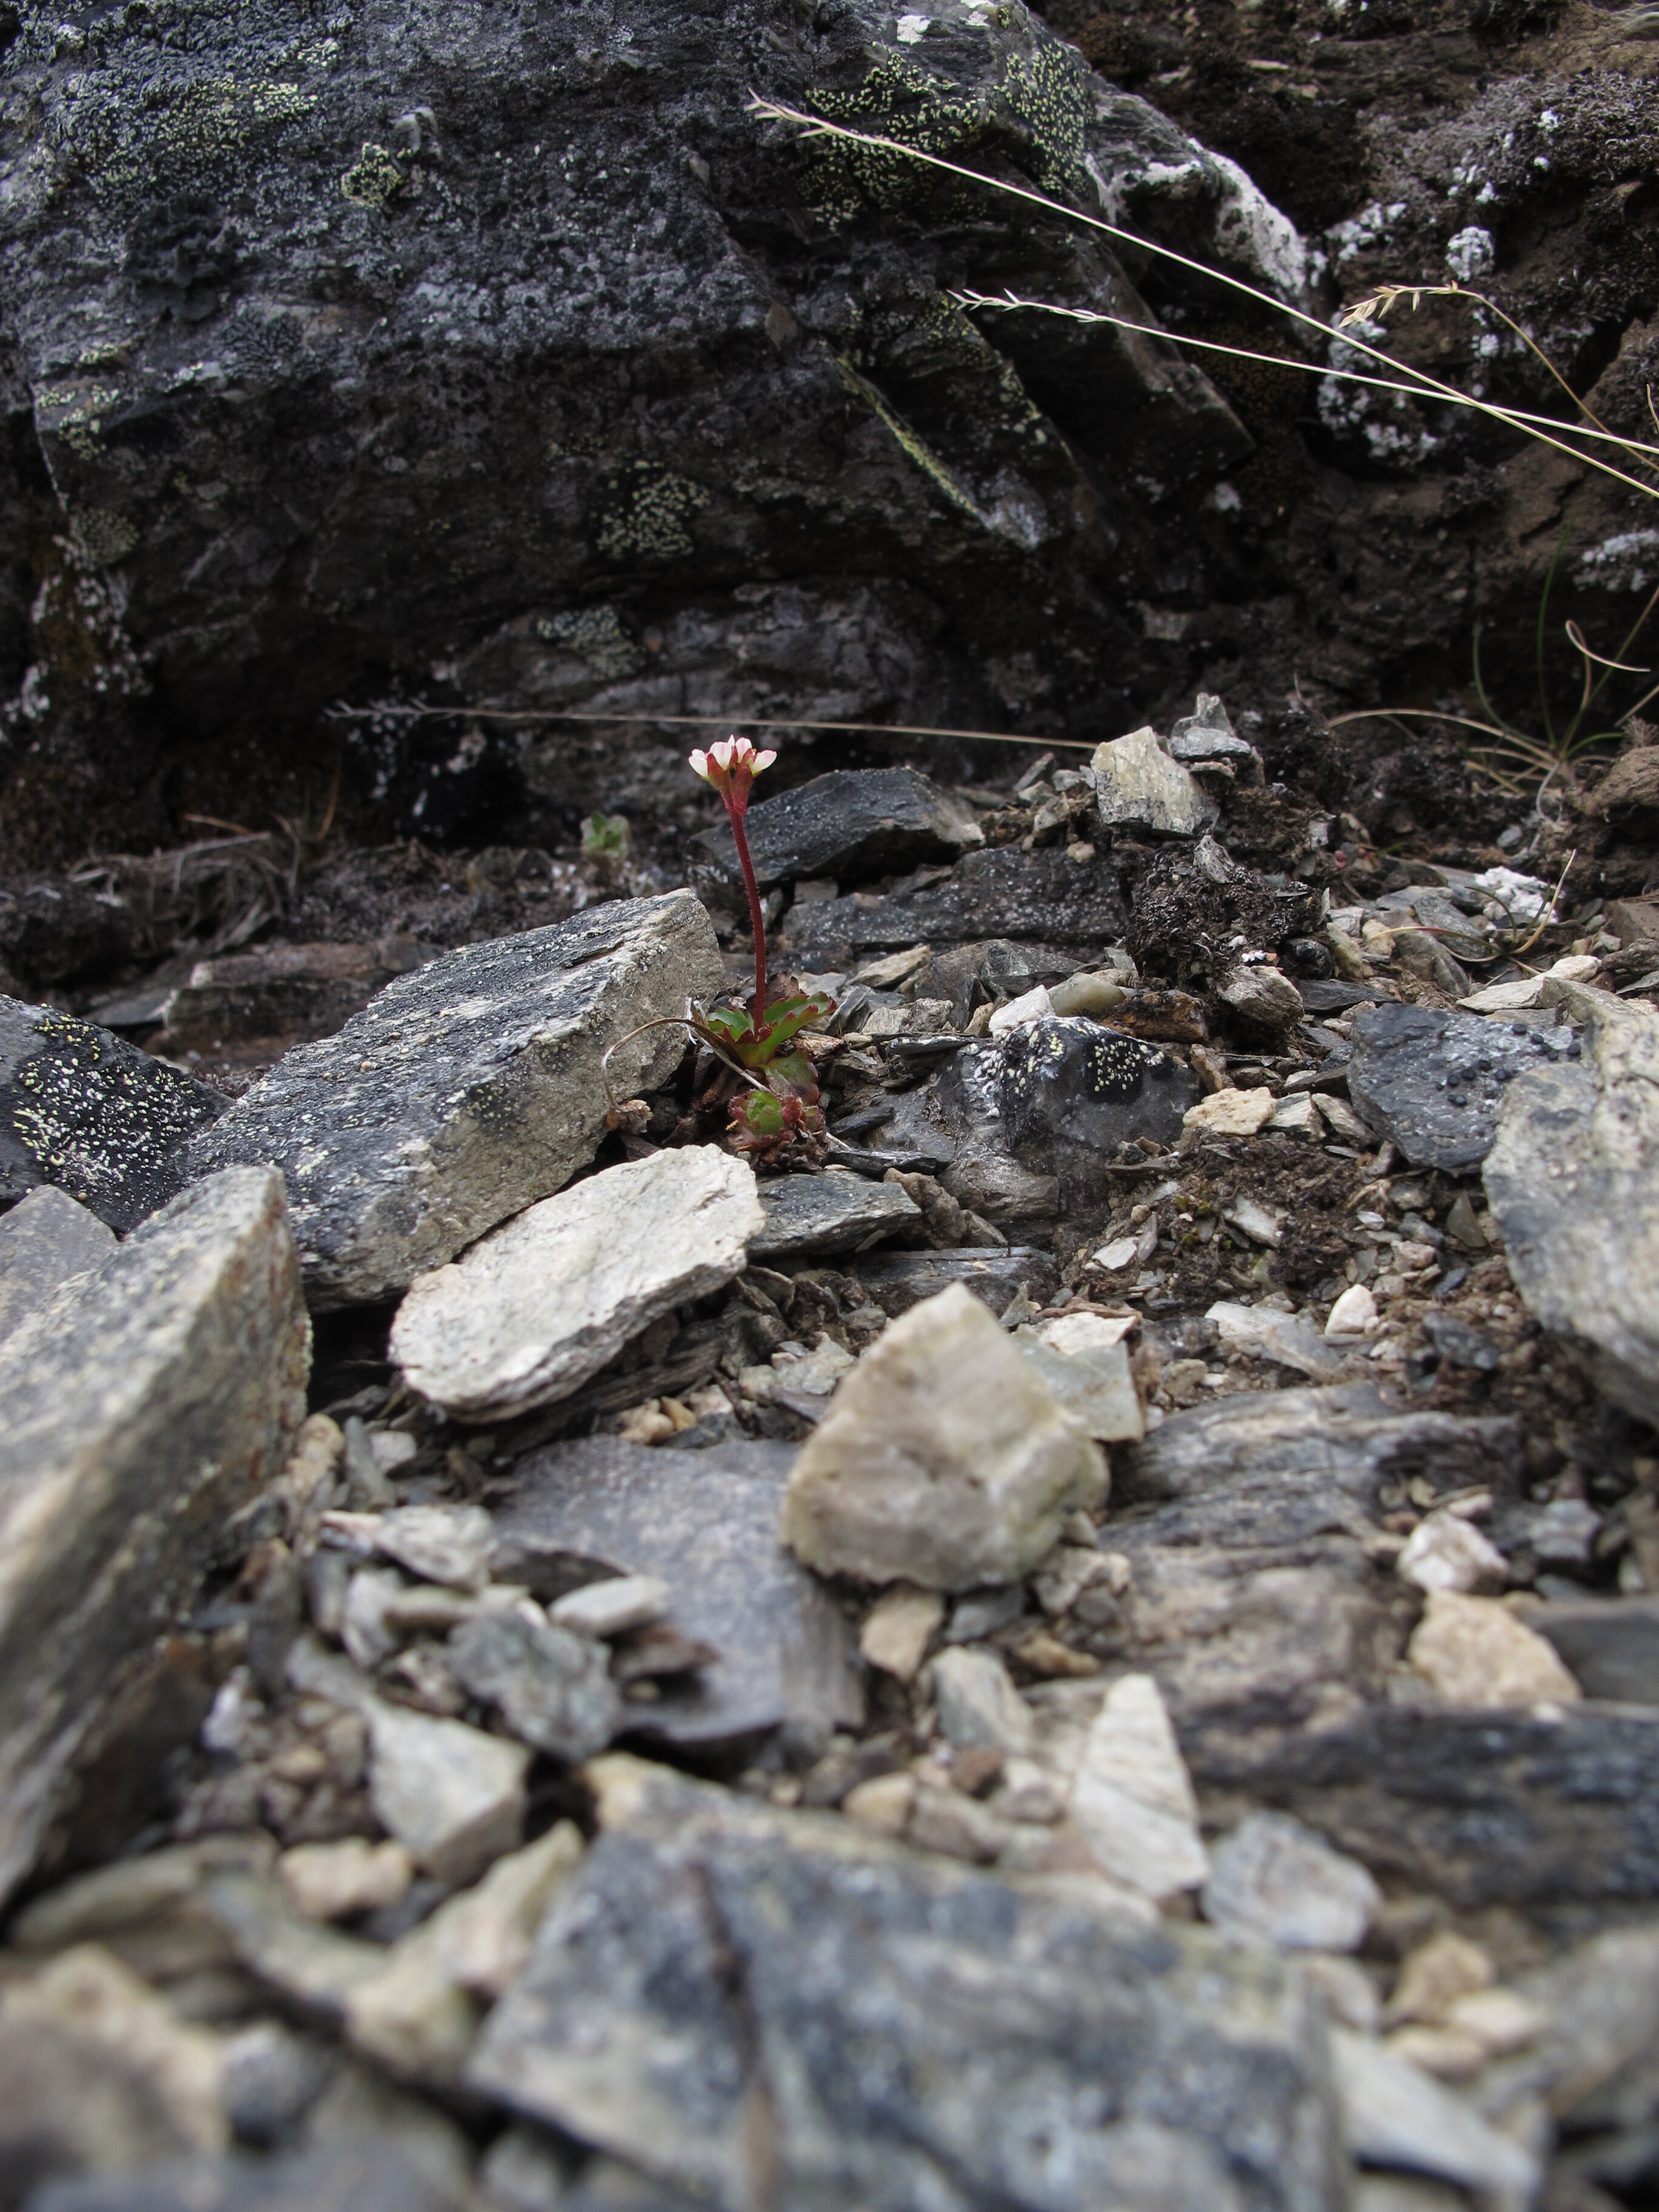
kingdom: Plantae
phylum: Tracheophyta
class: Magnoliopsida
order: Saxifragales
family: Saxifragaceae
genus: Micranthes
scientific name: Micranthes tenuis
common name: Ottertail pass saxifrage
